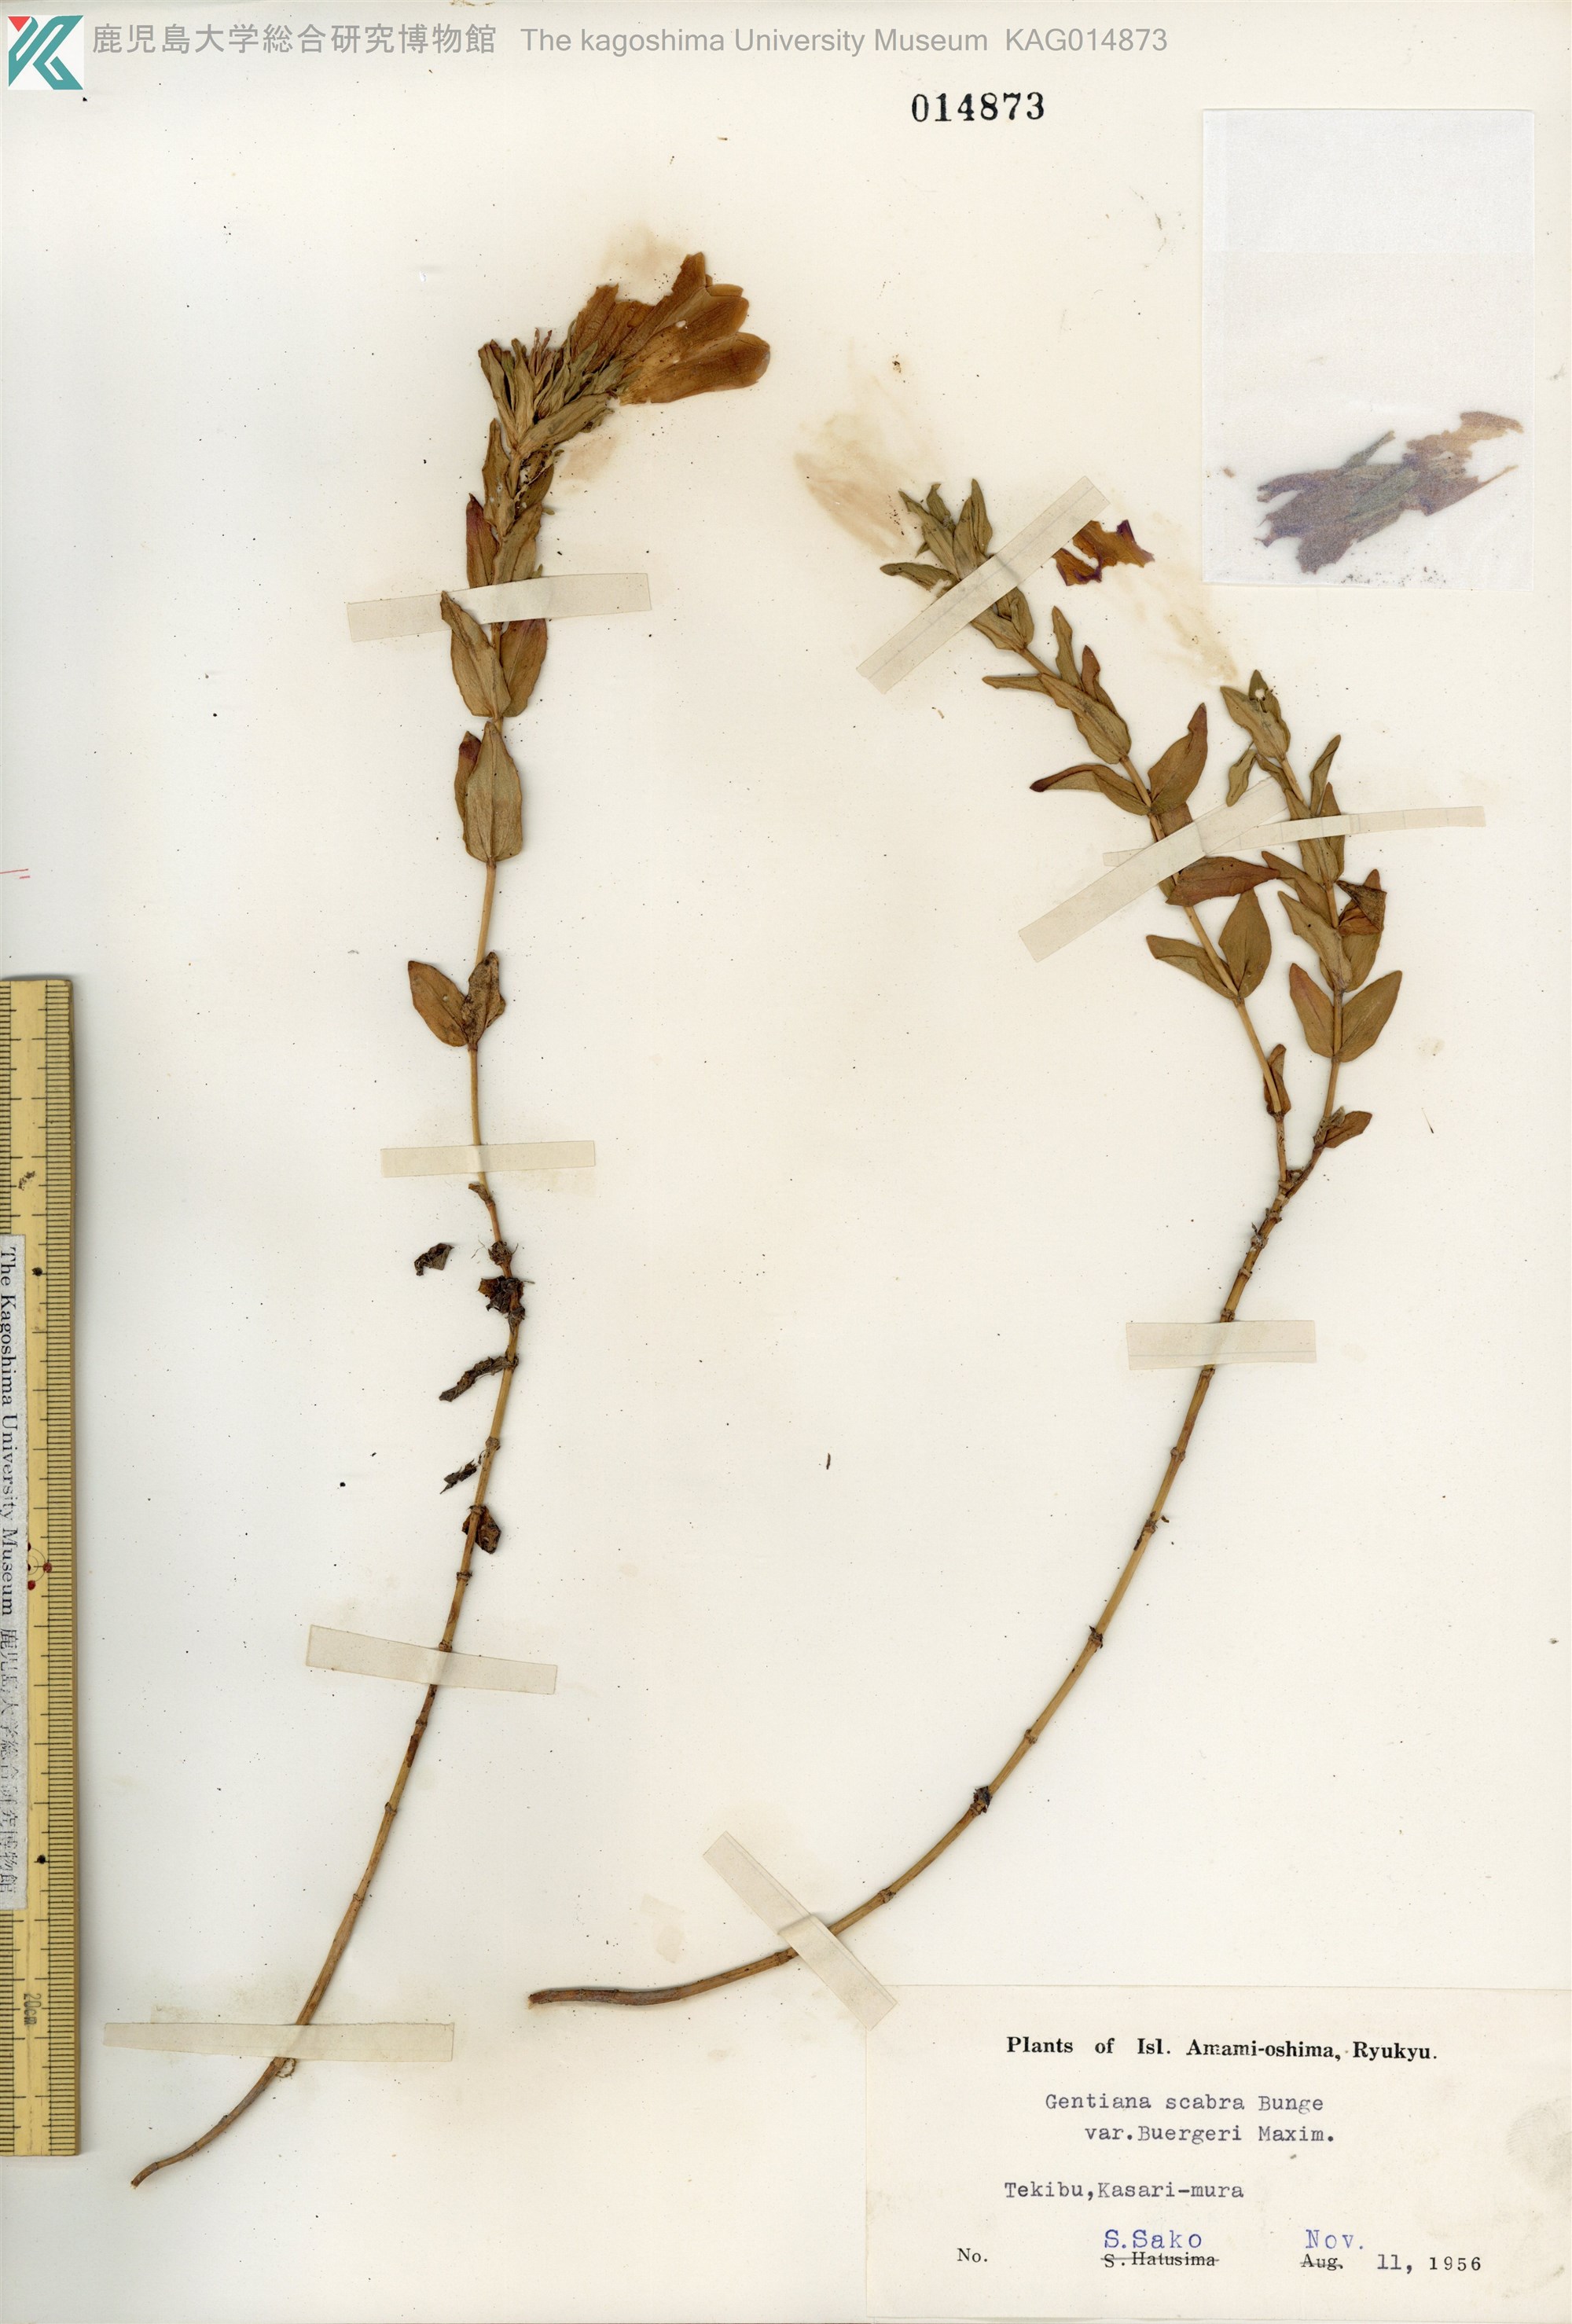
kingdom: Plantae
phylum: Tracheophyta
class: Magnoliopsida
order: Gentianales
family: Gentianaceae
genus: Gentiana
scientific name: Gentiana scabra
